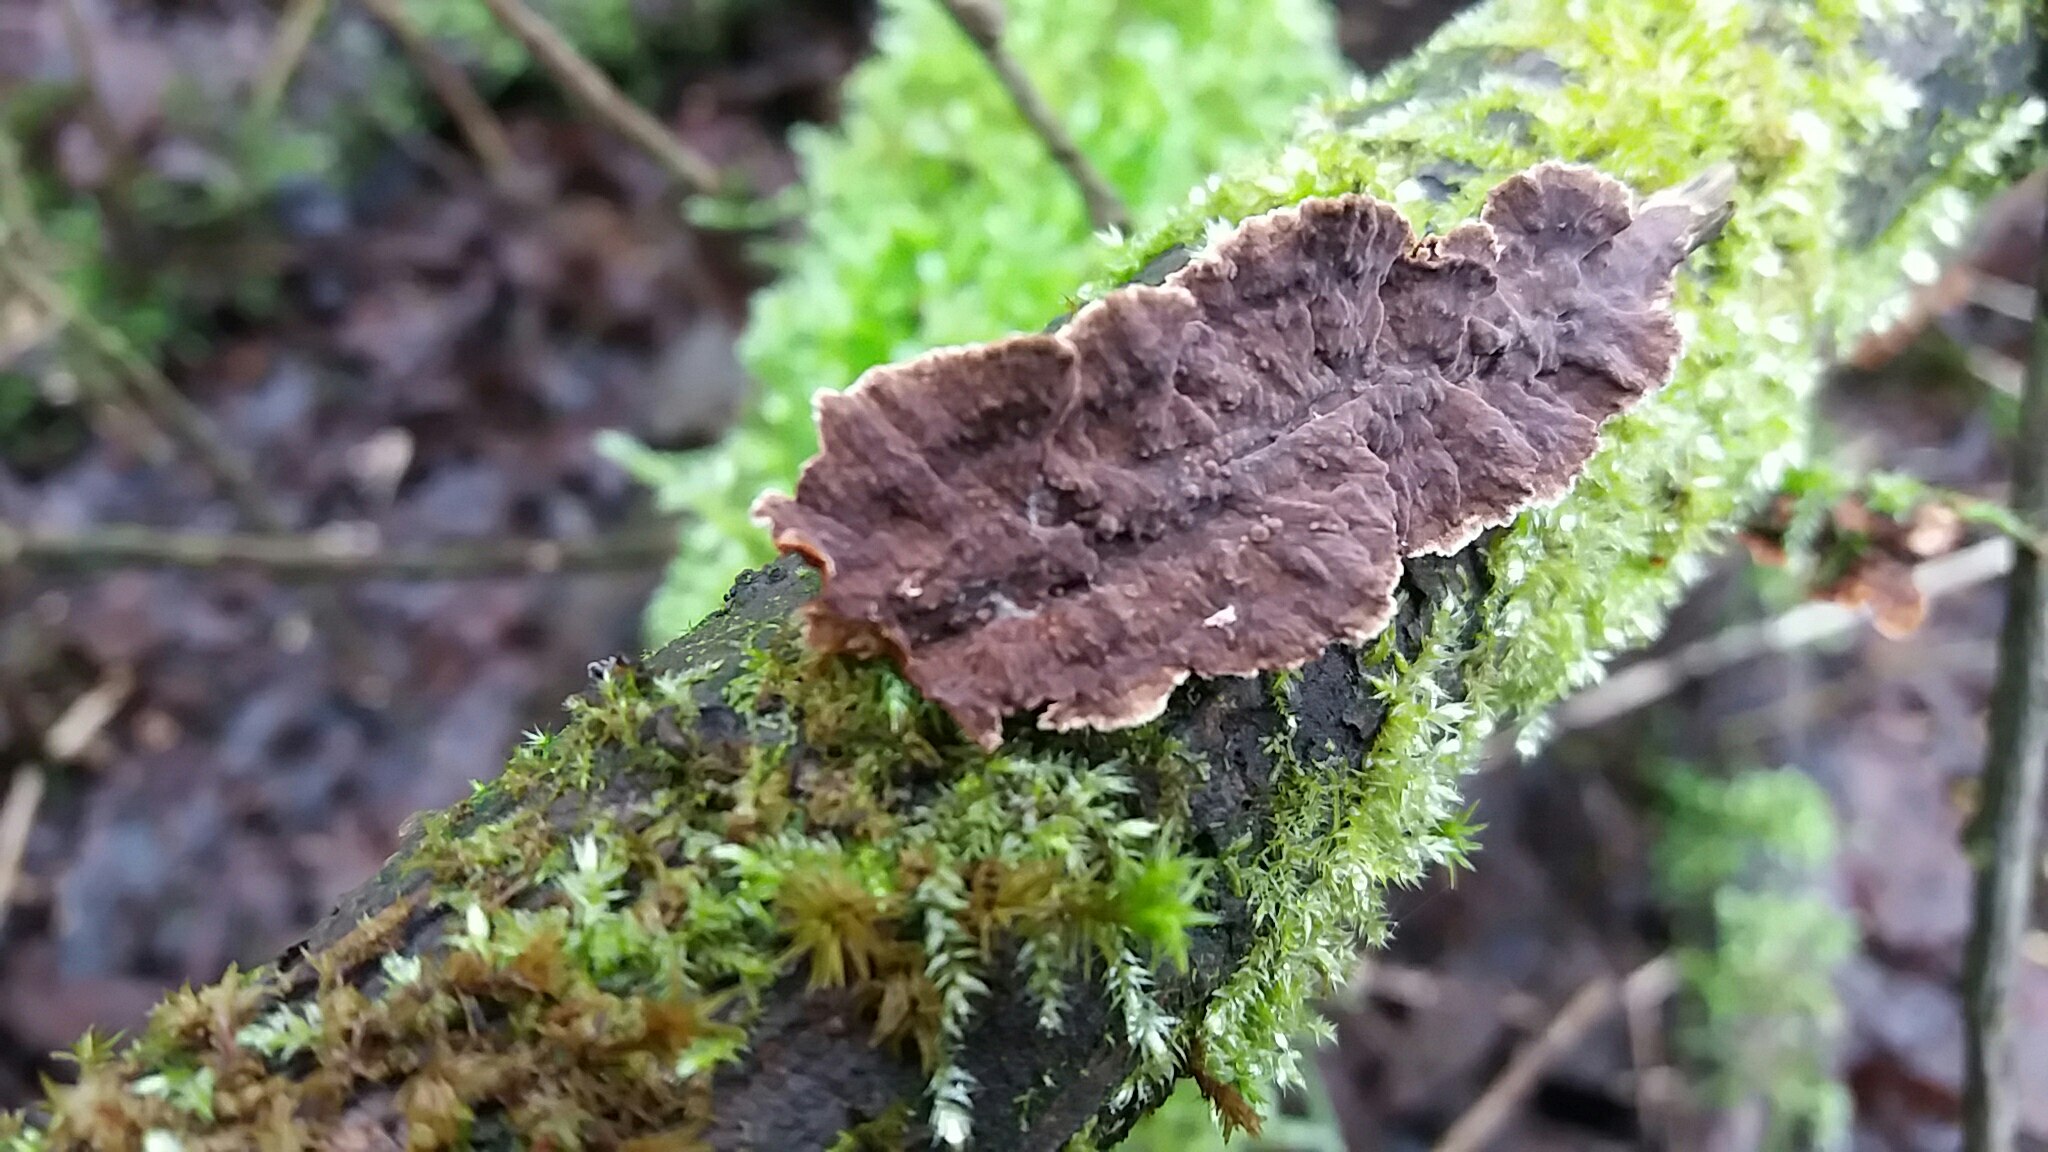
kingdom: Fungi
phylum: Basidiomycota
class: Agaricomycetes
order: Hymenochaetales
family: Hymenochaetaceae
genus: Hydnoporia
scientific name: Hydnoporia tabacina
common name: tobaksbrun ruslædersvamp
